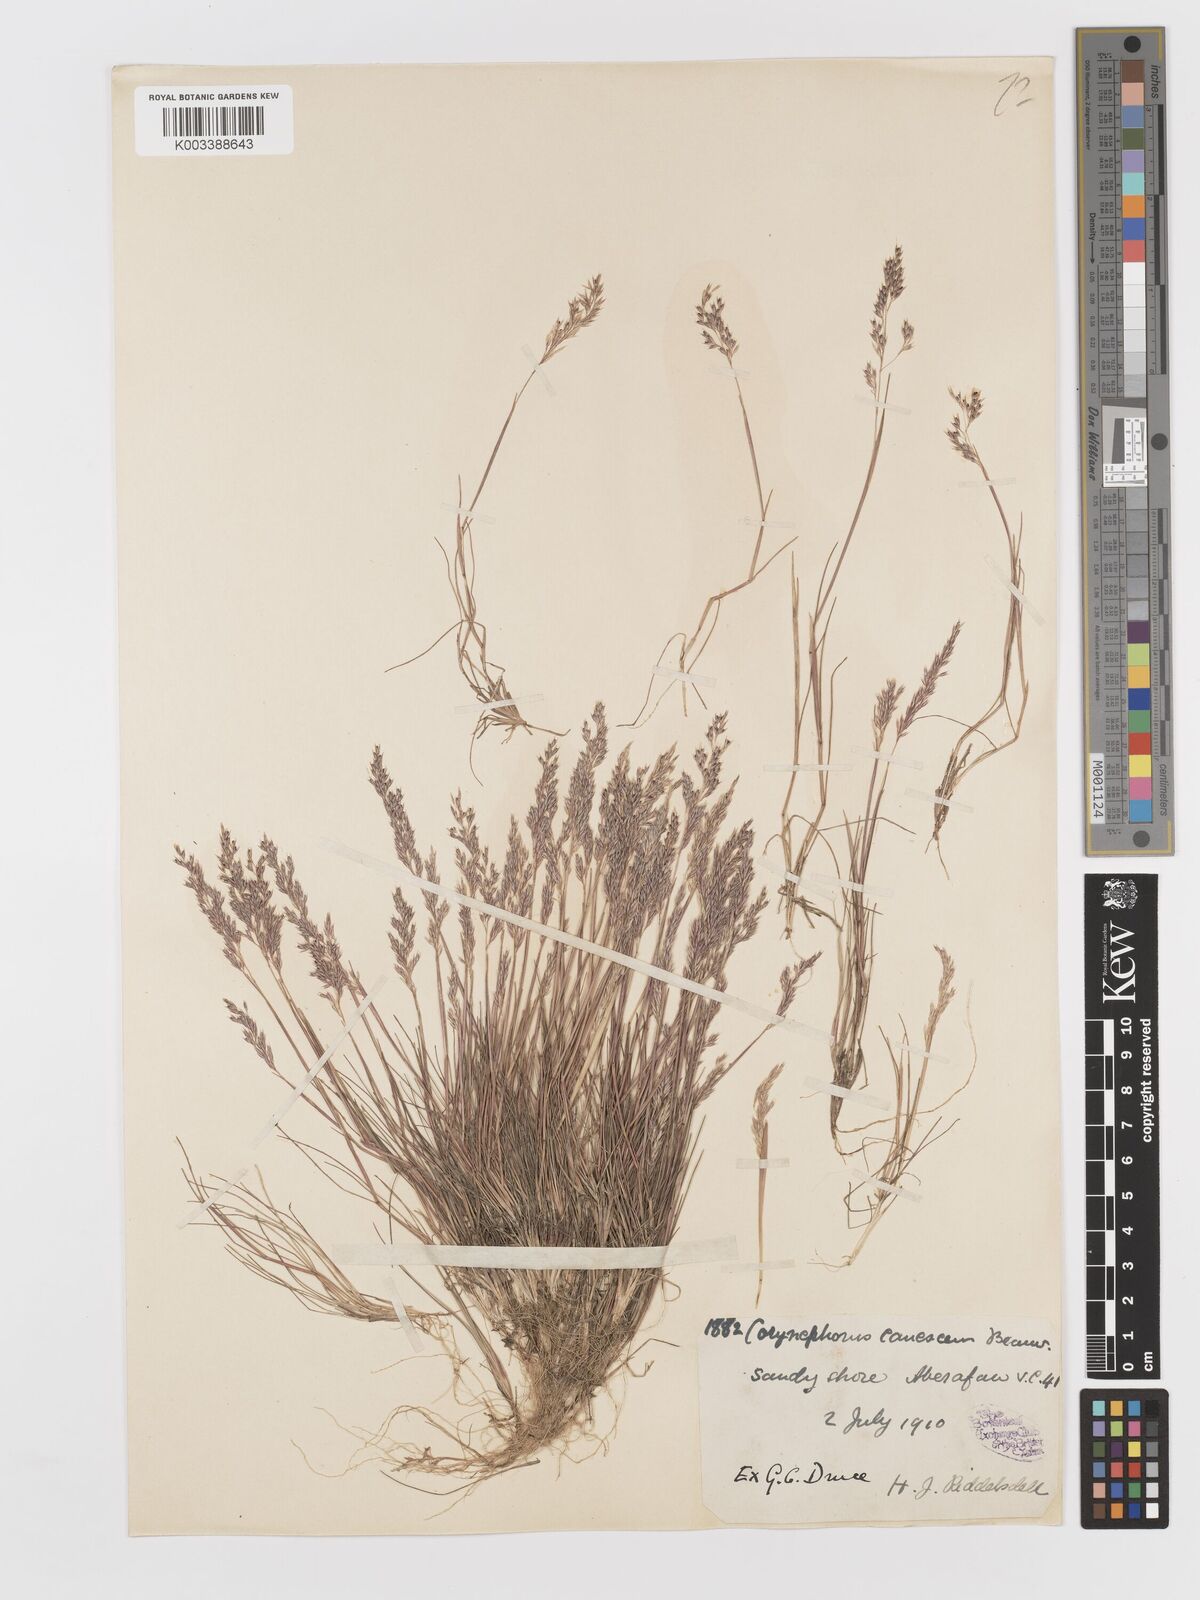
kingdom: Plantae
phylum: Tracheophyta
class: Liliopsida
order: Poales
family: Poaceae
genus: Corynephorus
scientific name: Corynephorus canescens
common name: Grey hair-grass
